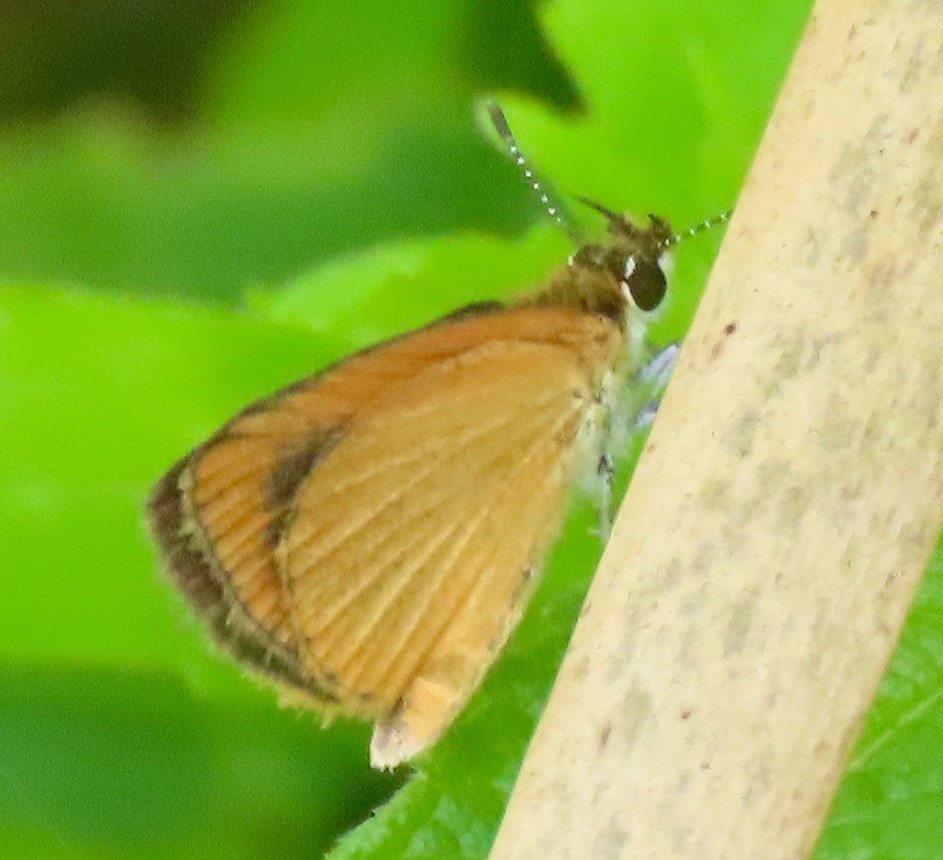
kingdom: Animalia
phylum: Arthropoda
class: Insecta
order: Lepidoptera
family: Hesperiidae
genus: Ancyloxypha
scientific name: Ancyloxypha numitor
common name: Least Skipper
